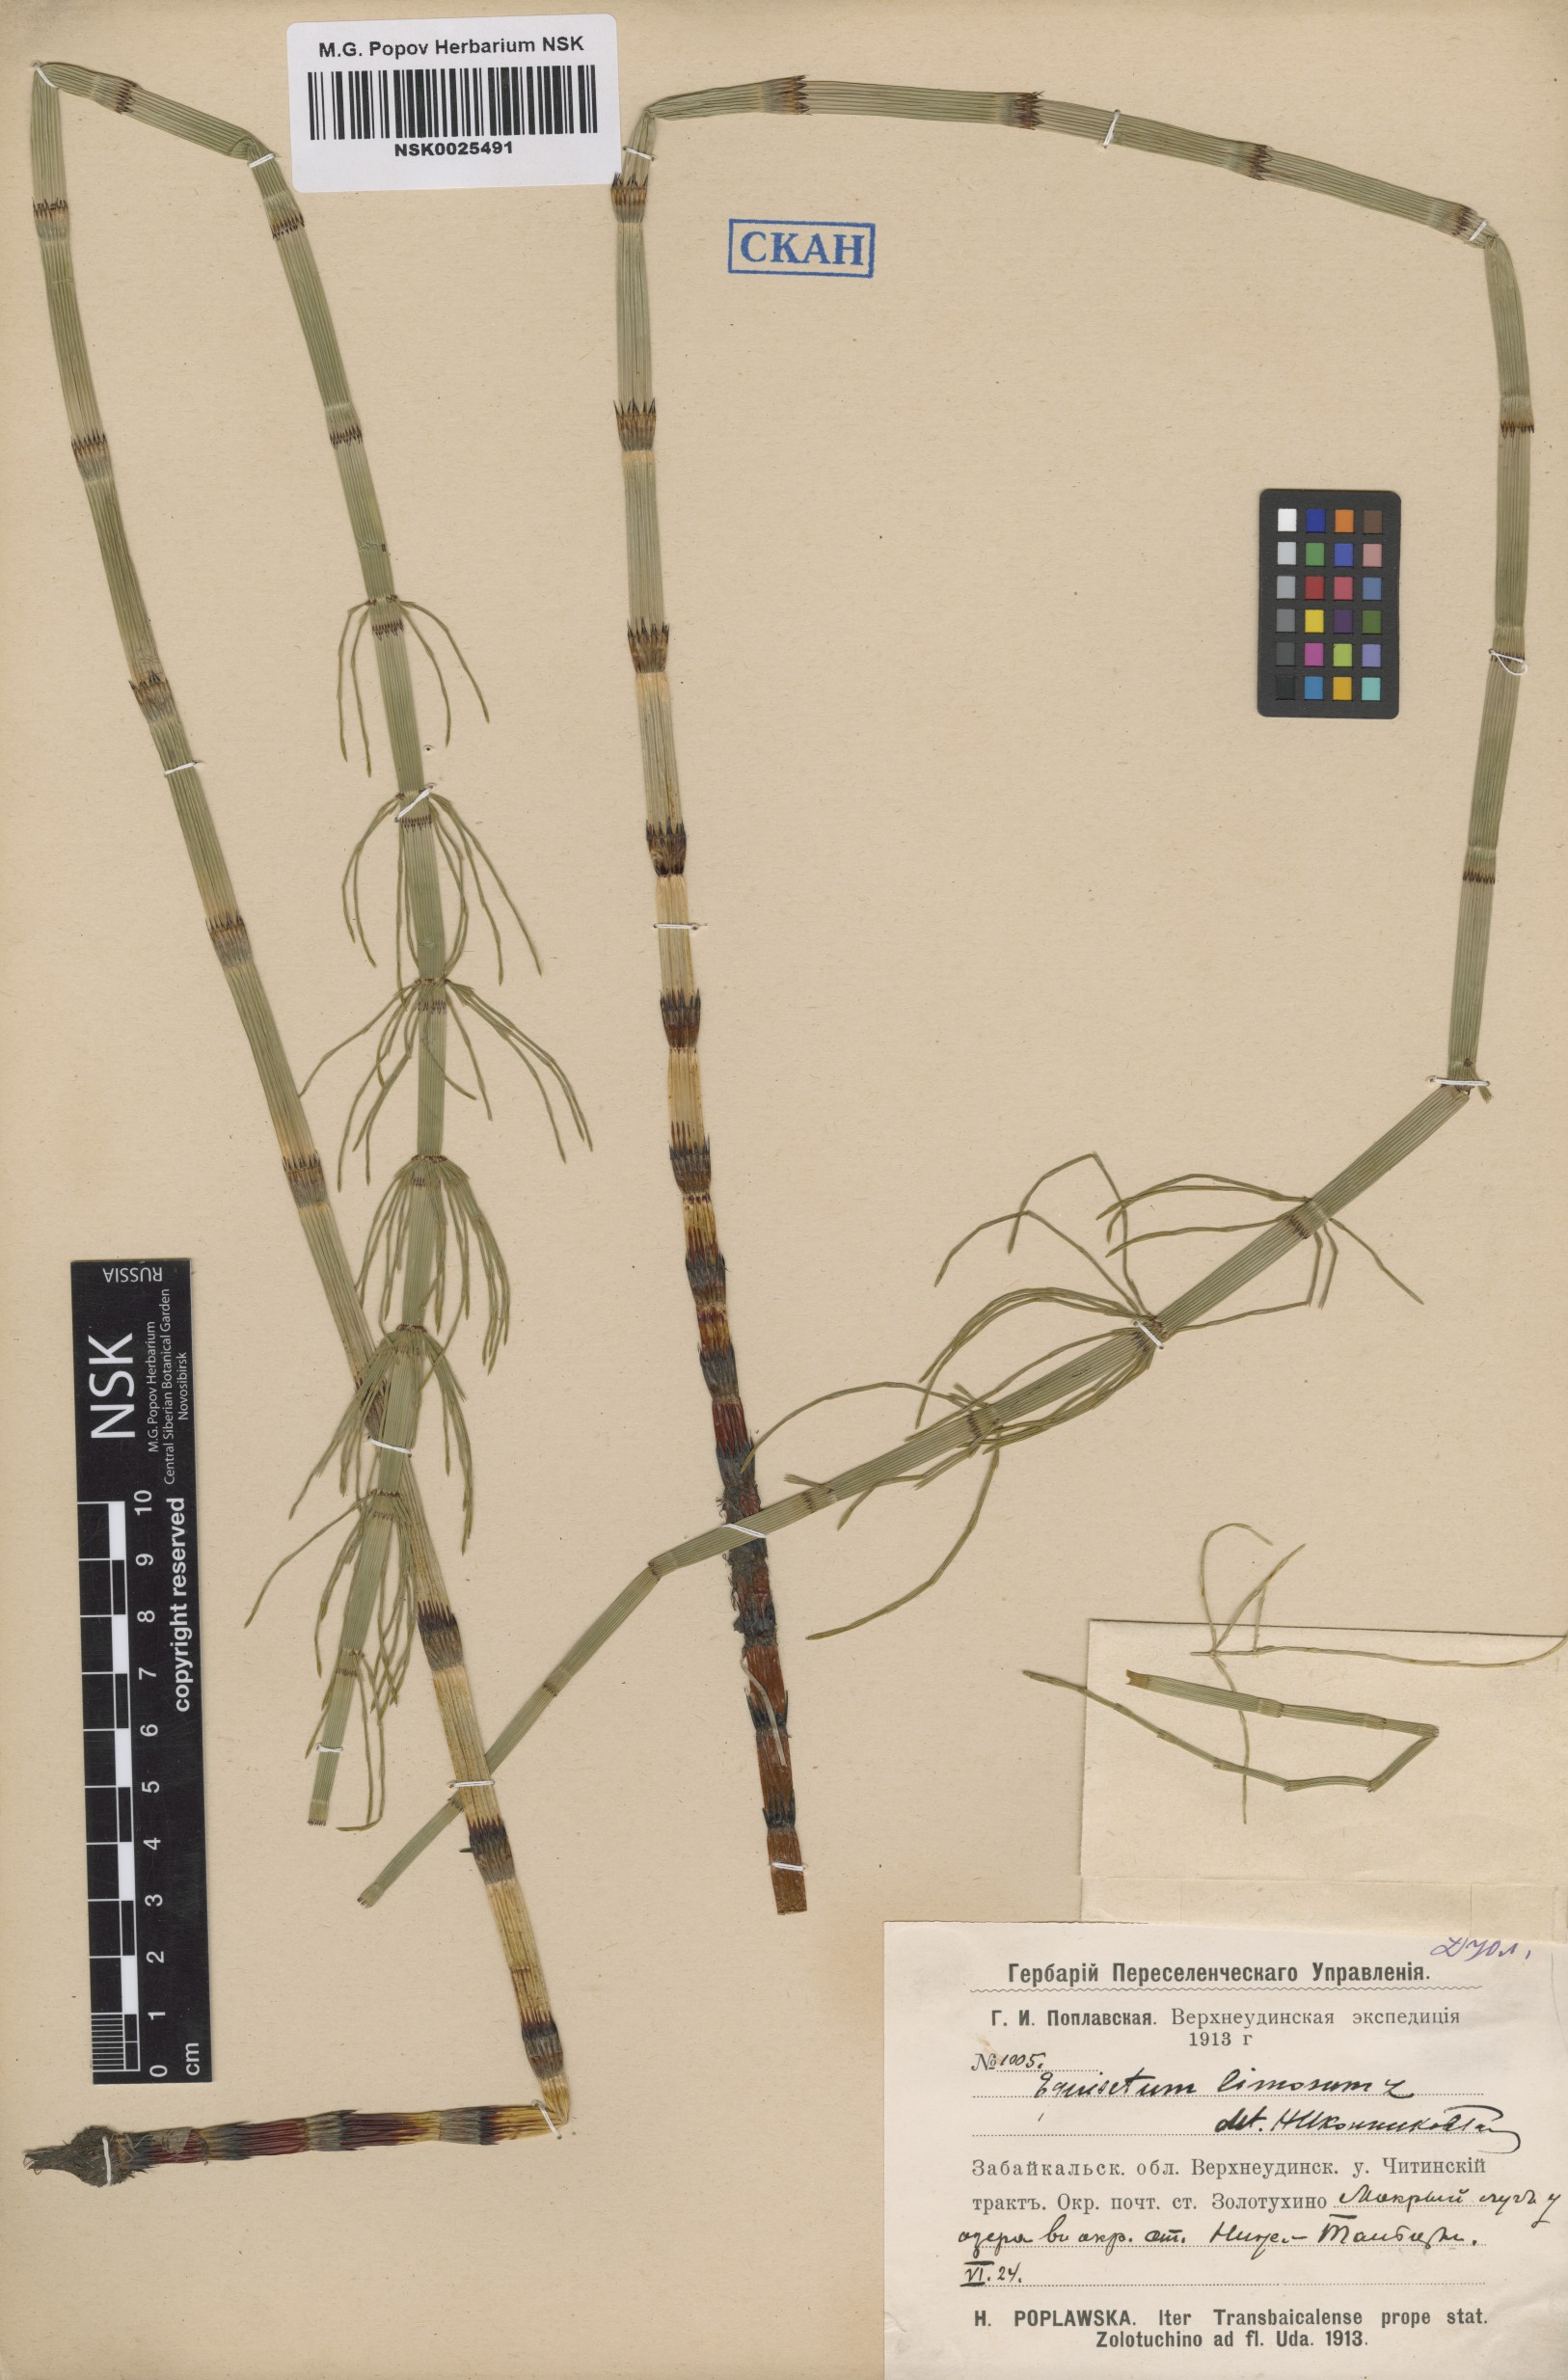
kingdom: Plantae
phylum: Tracheophyta
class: Polypodiopsida
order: Equisetales
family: Equisetaceae
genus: Equisetum
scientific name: Equisetum fluviatile
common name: Water horsetail
